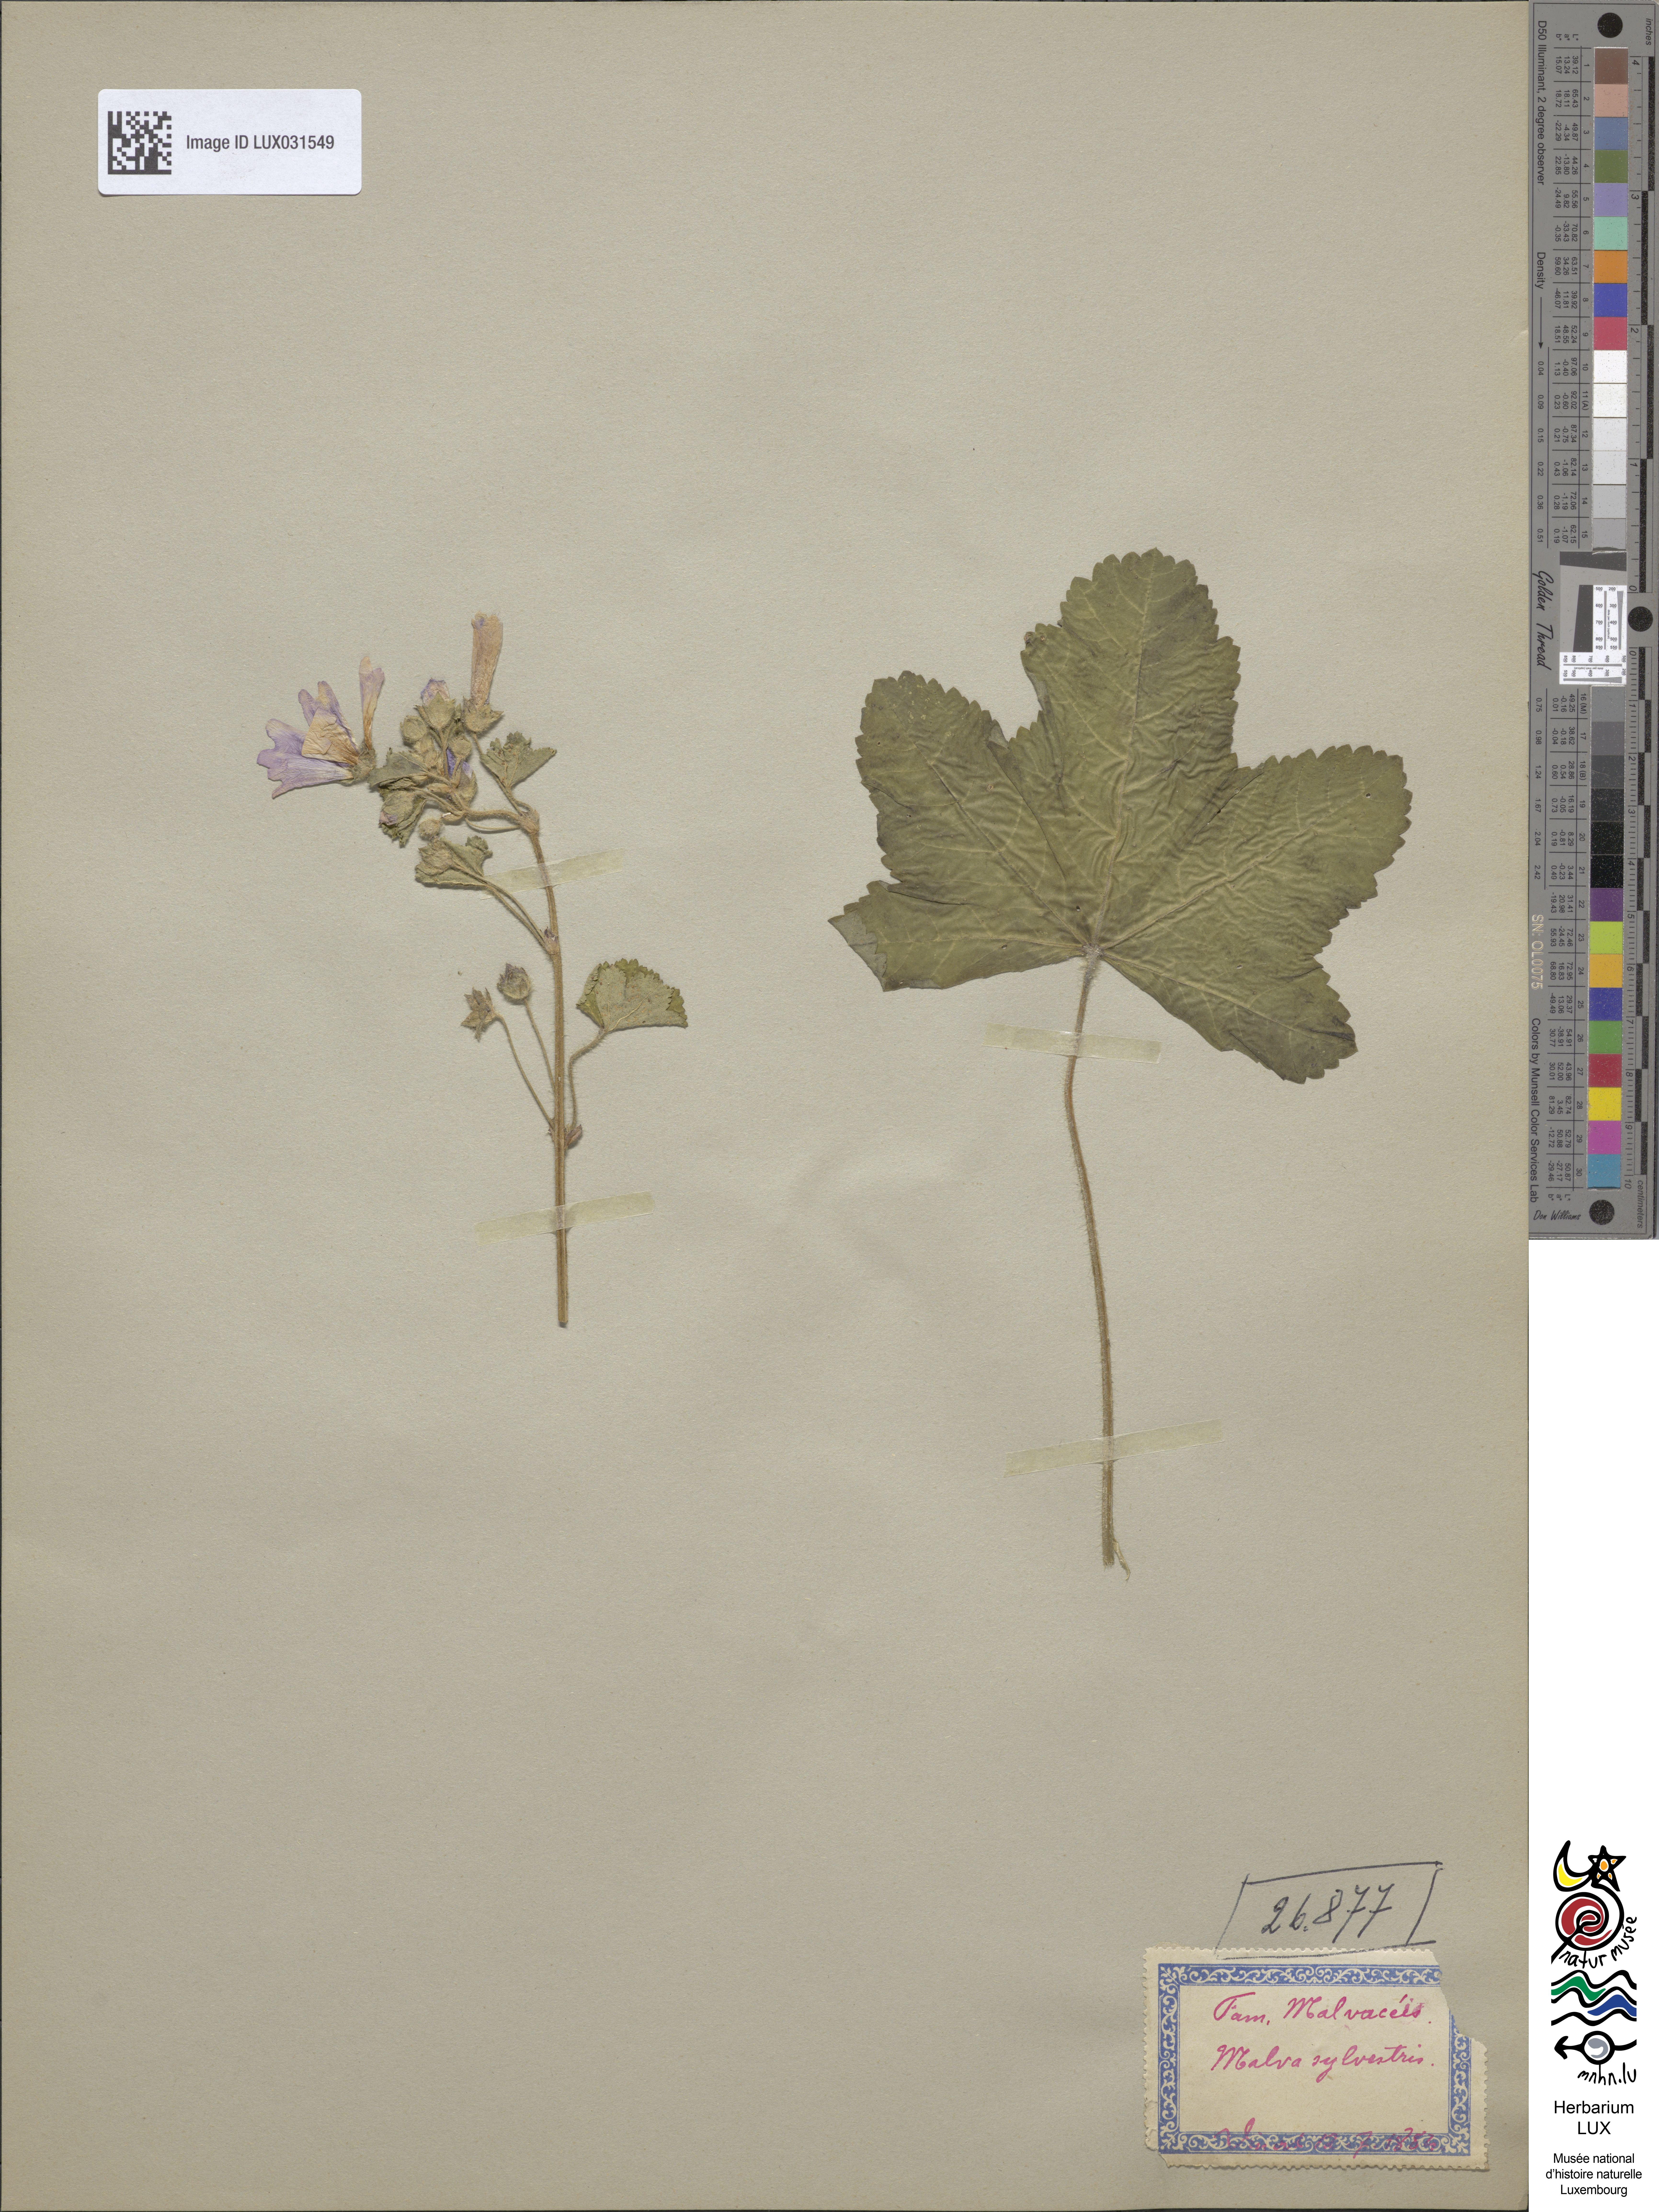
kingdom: Plantae
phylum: Tracheophyta
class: Magnoliopsida
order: Malvales
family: Malvaceae
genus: Malva
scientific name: Malva sylvestris
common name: Common mallow
